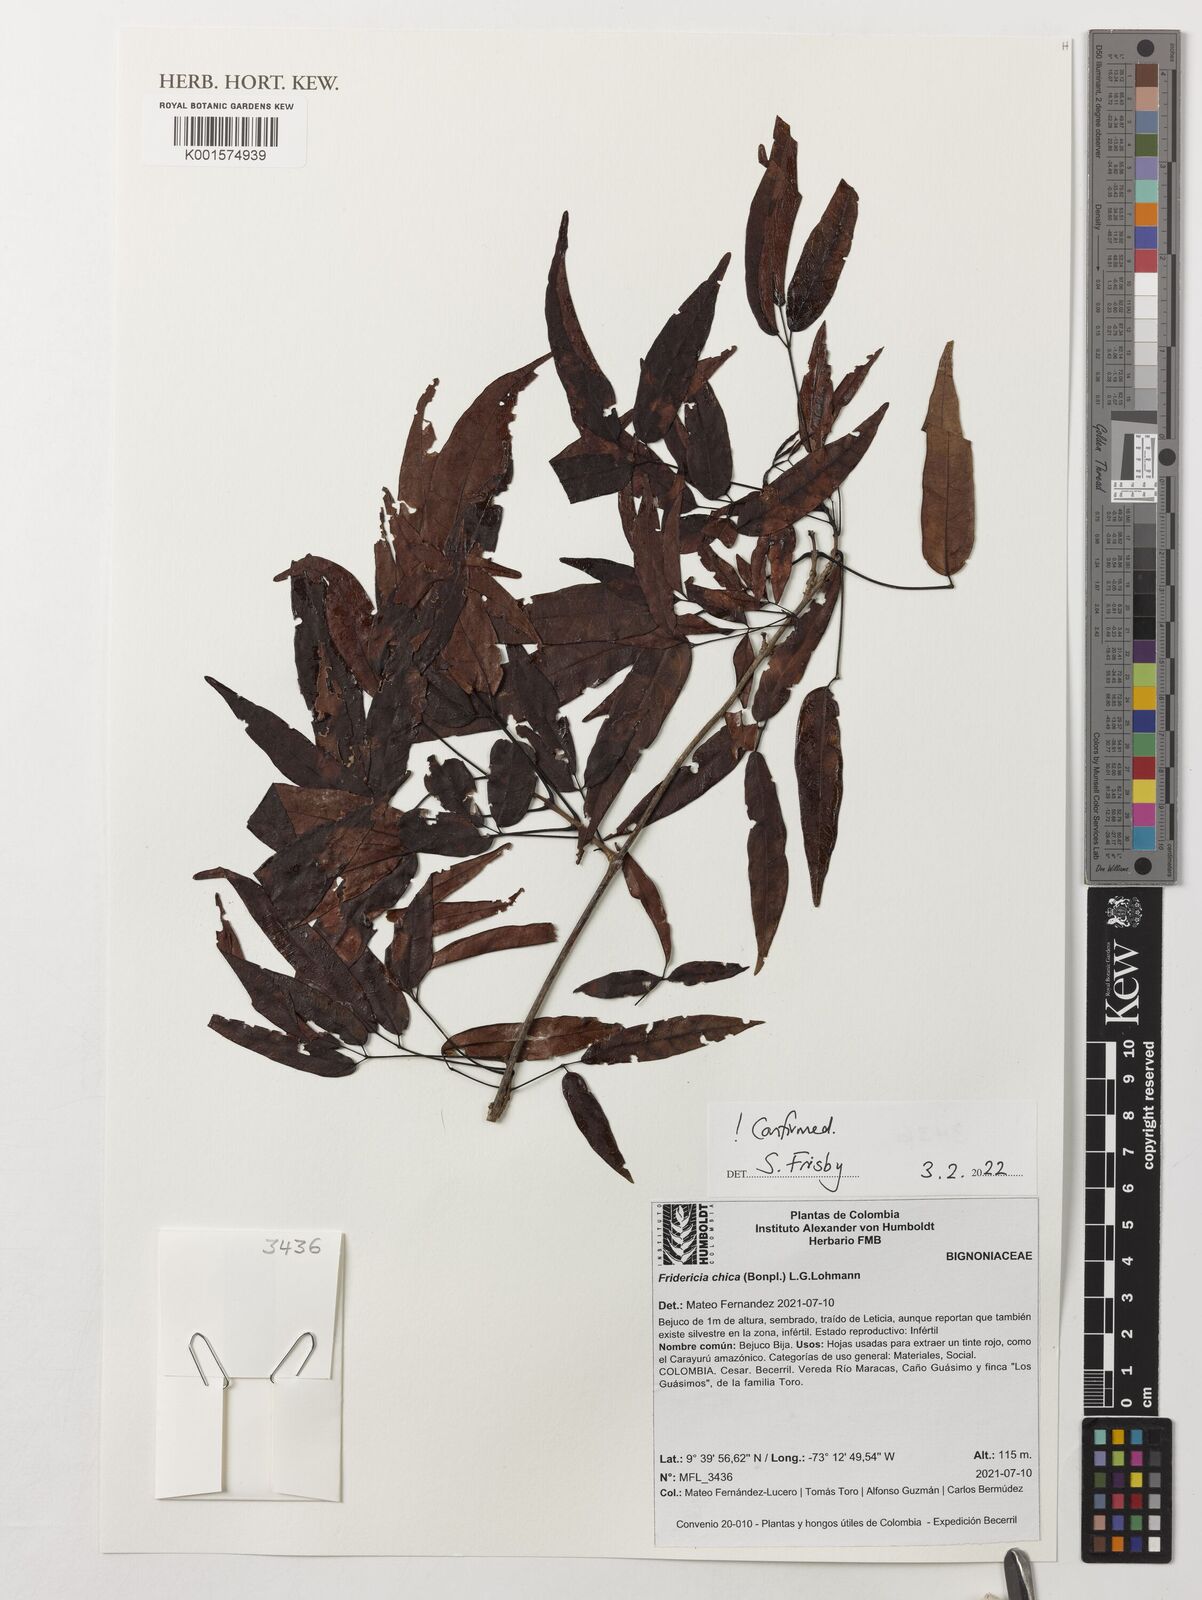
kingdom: Plantae
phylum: Tracheophyta
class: Magnoliopsida
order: Lamiales
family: Bignoniaceae
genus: Fridericia
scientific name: Fridericia chica
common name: Cricketvine
